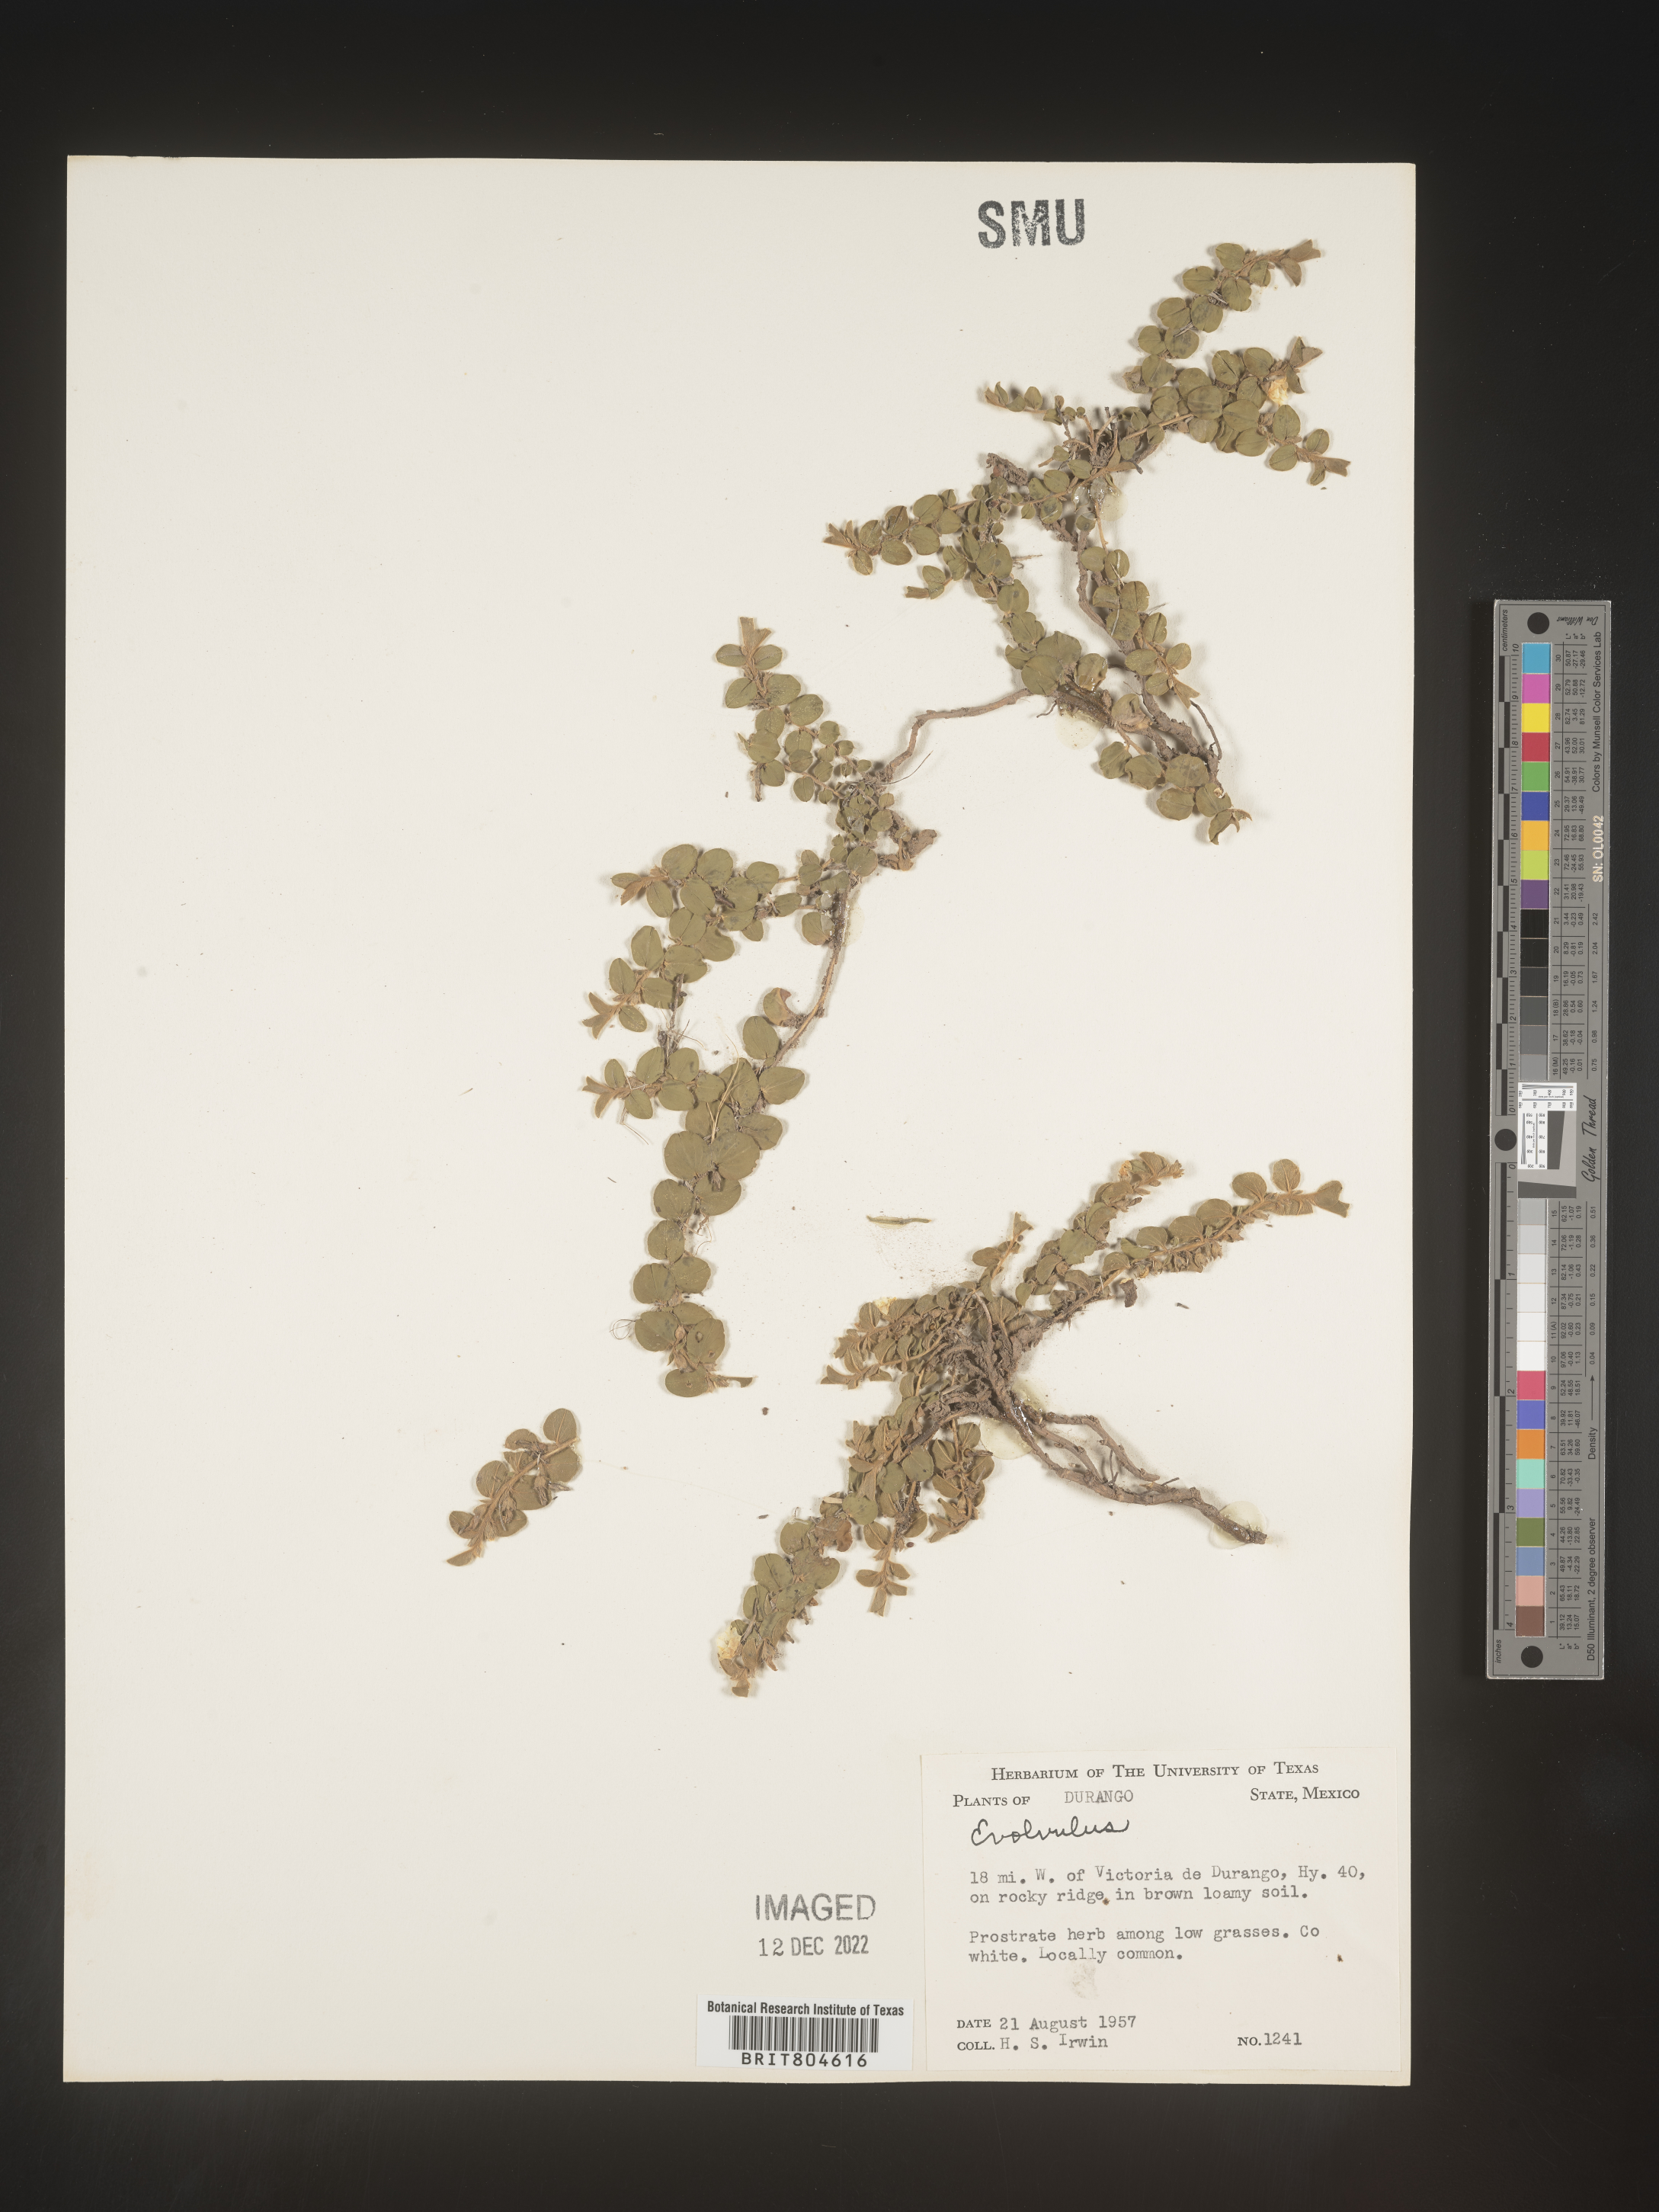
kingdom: Plantae
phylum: Tracheophyta
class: Magnoliopsida
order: Solanales
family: Convolvulaceae
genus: Evolvulus
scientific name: Evolvulus
